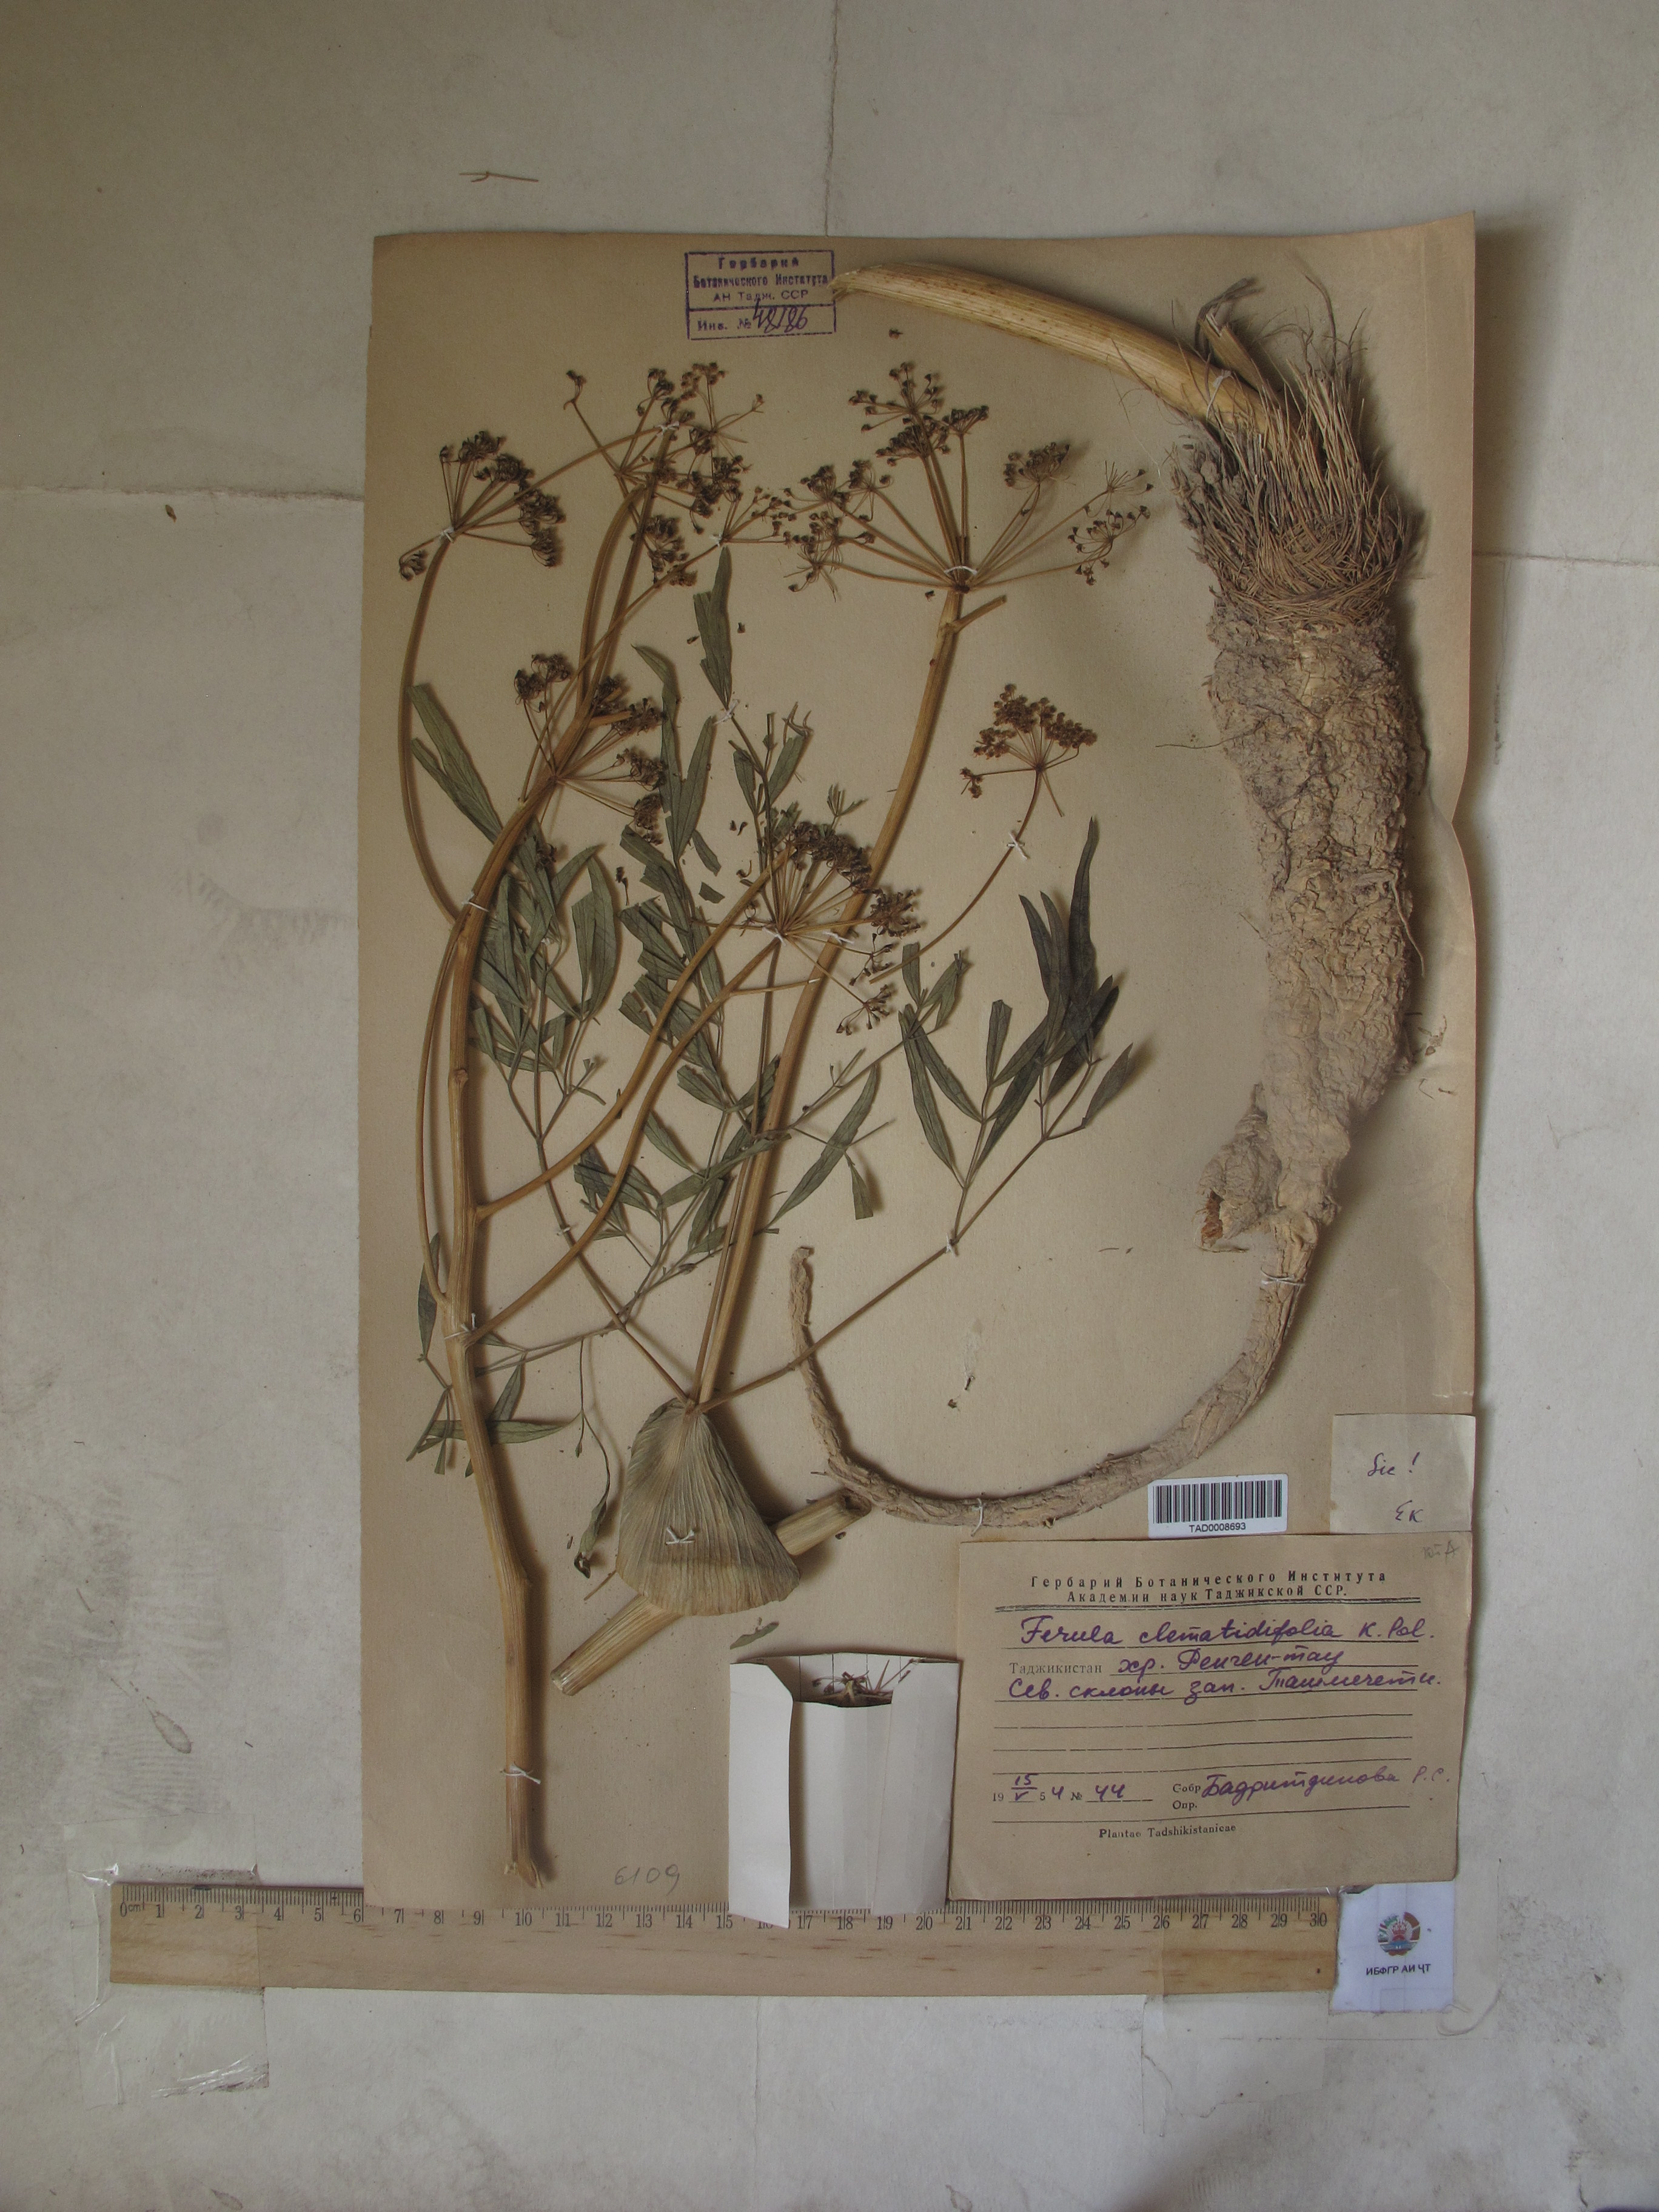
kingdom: Plantae
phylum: Tracheophyta
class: Magnoliopsida
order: Apiales
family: Apiaceae
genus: Ferula
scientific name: Ferula clematidifolia
